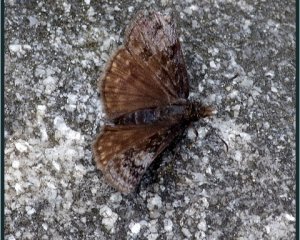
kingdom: Animalia
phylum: Arthropoda
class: Insecta
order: Lepidoptera
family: Hesperiidae
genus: Erynnis
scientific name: Erynnis icelus
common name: Dreamy Duskywing
